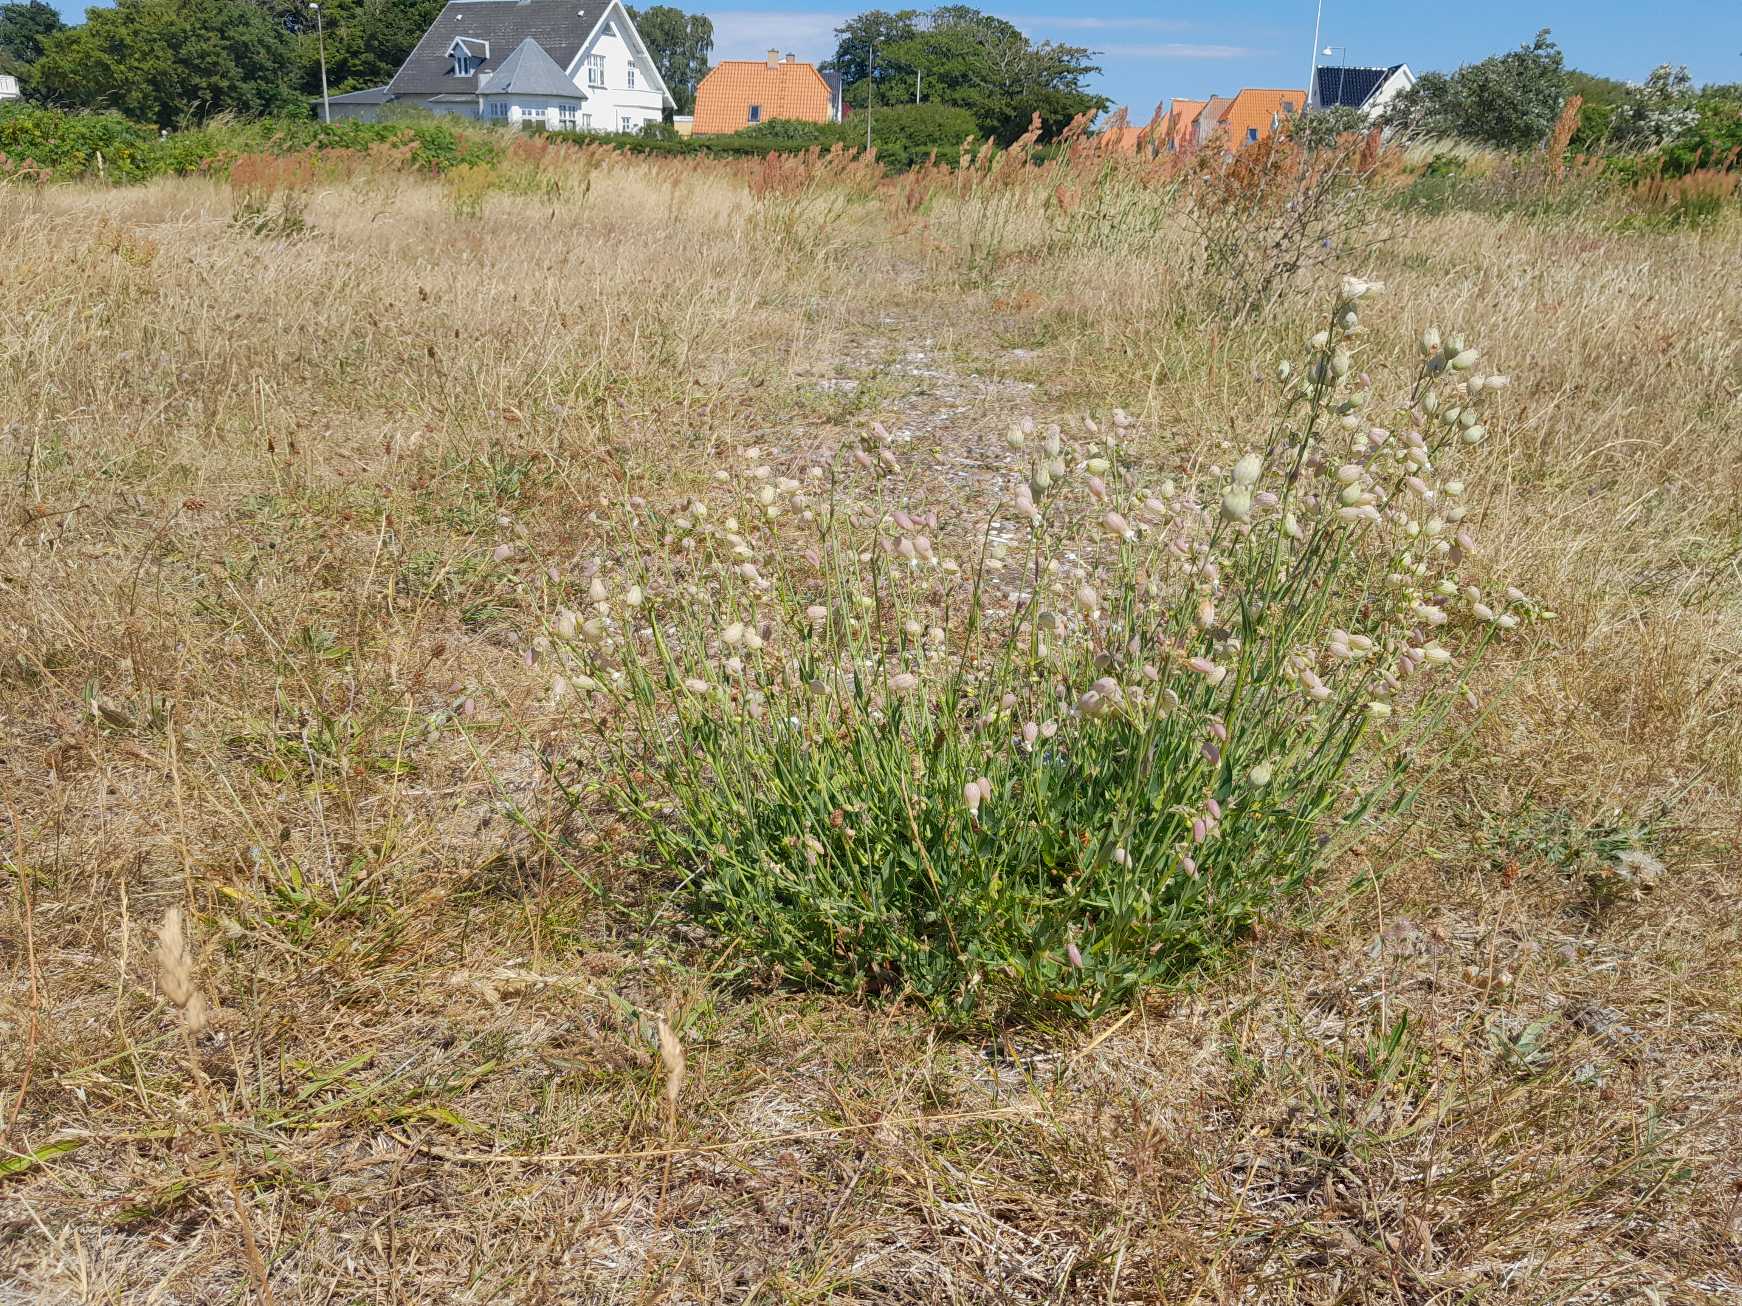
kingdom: Plantae
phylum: Tracheophyta
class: Magnoliopsida
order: Caryophyllales
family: Caryophyllaceae
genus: Silene
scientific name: Silene vulgaris
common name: Blæresmælde
